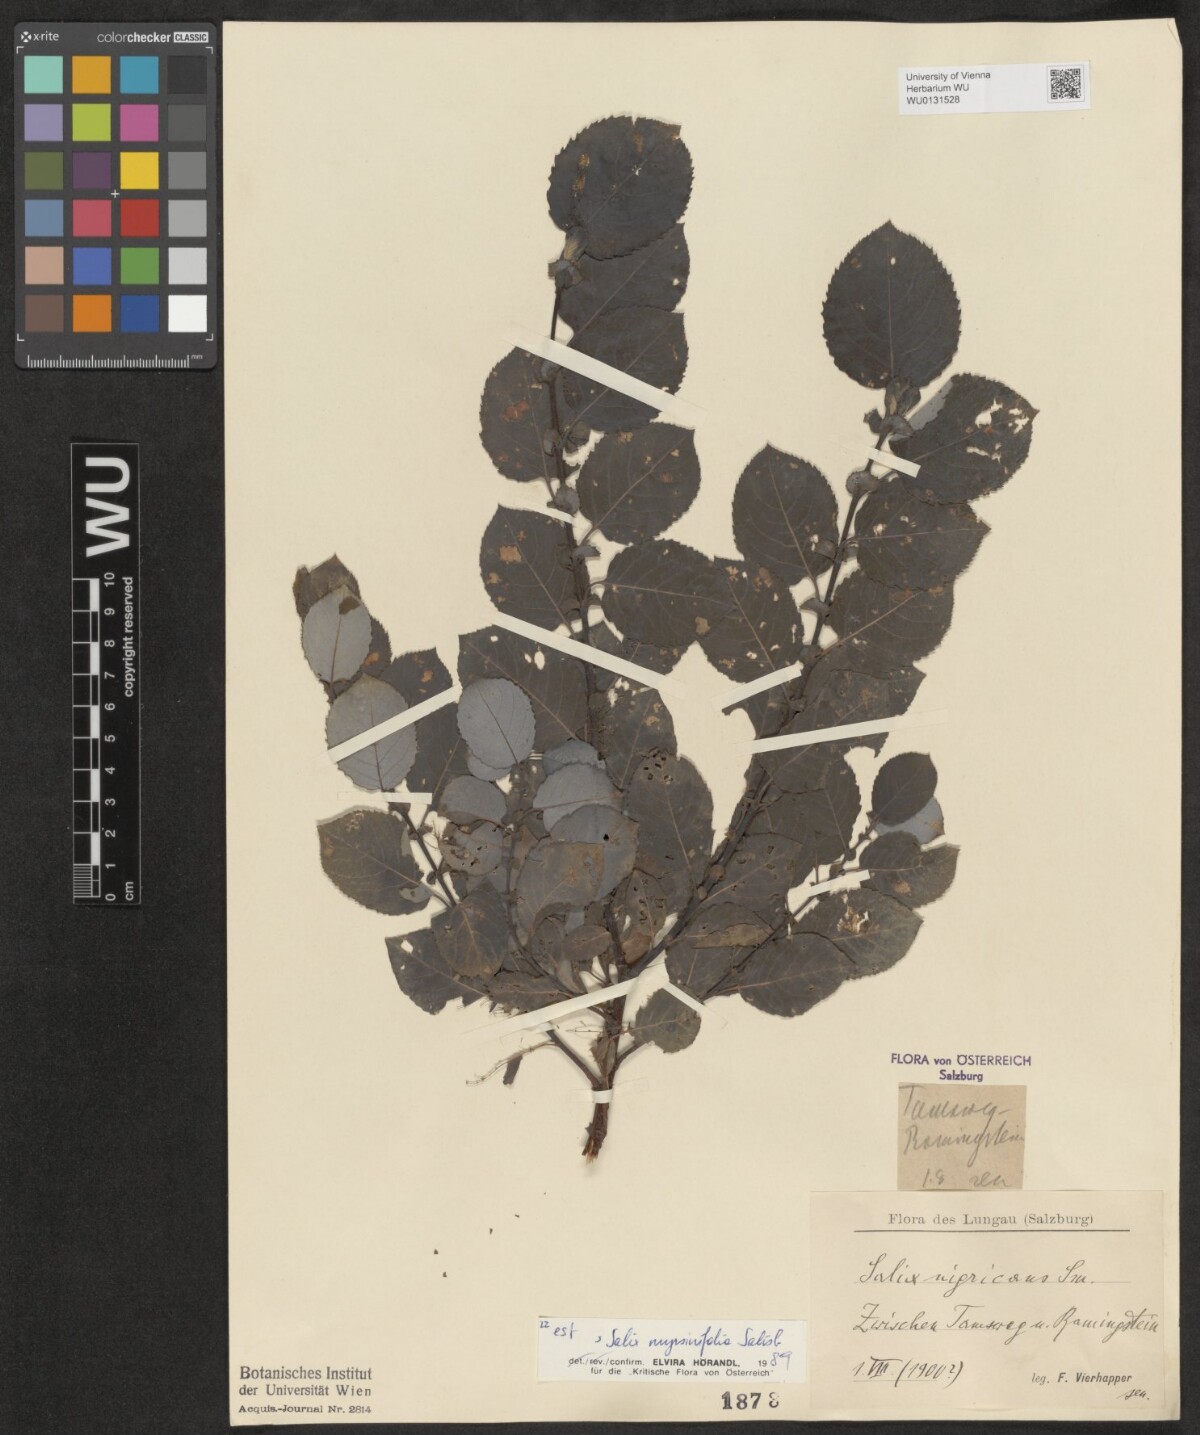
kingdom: Plantae
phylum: Tracheophyta
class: Magnoliopsida
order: Malpighiales
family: Salicaceae
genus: Salix
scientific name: Salix myrsinifolia
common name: Dark-leaved willow
